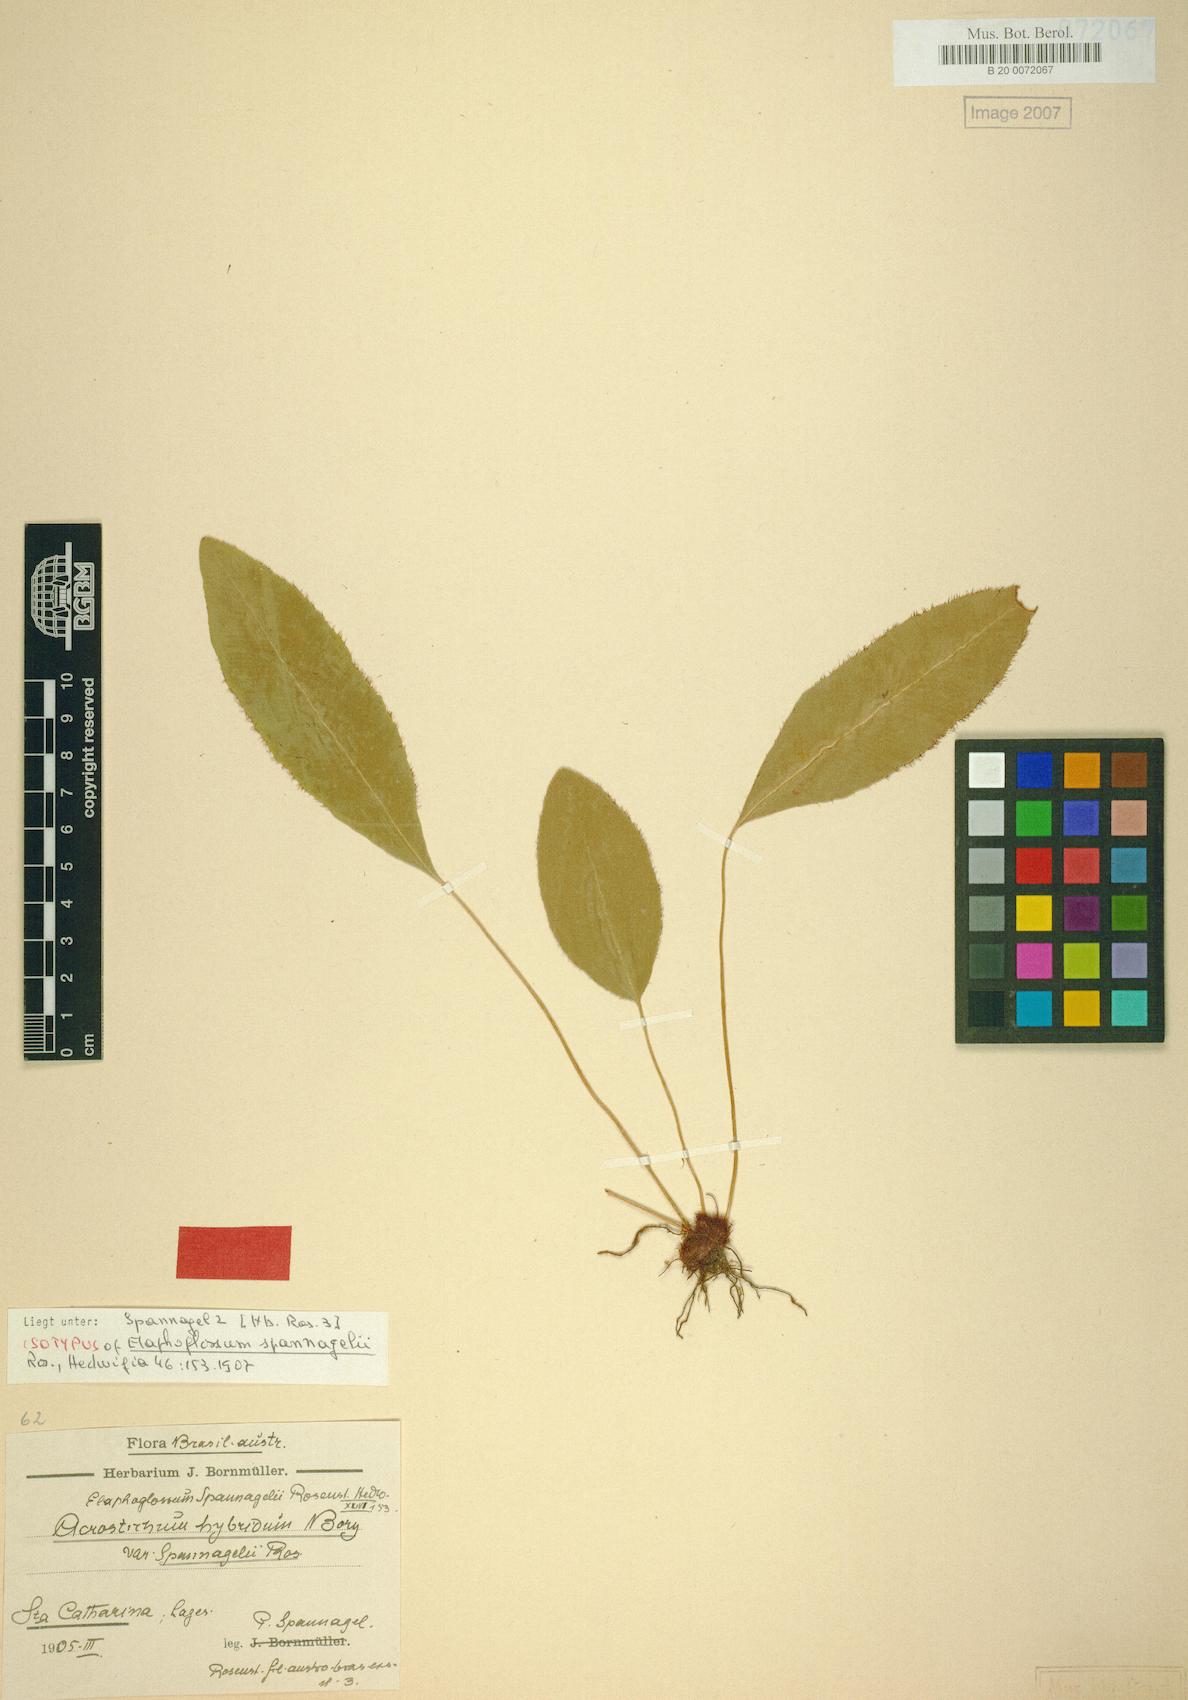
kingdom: Plantae
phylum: Tracheophyta
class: Polypodiopsida
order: Polypodiales
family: Dryopteridaceae
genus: Elaphoglossum
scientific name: Elaphoglossum ulei
